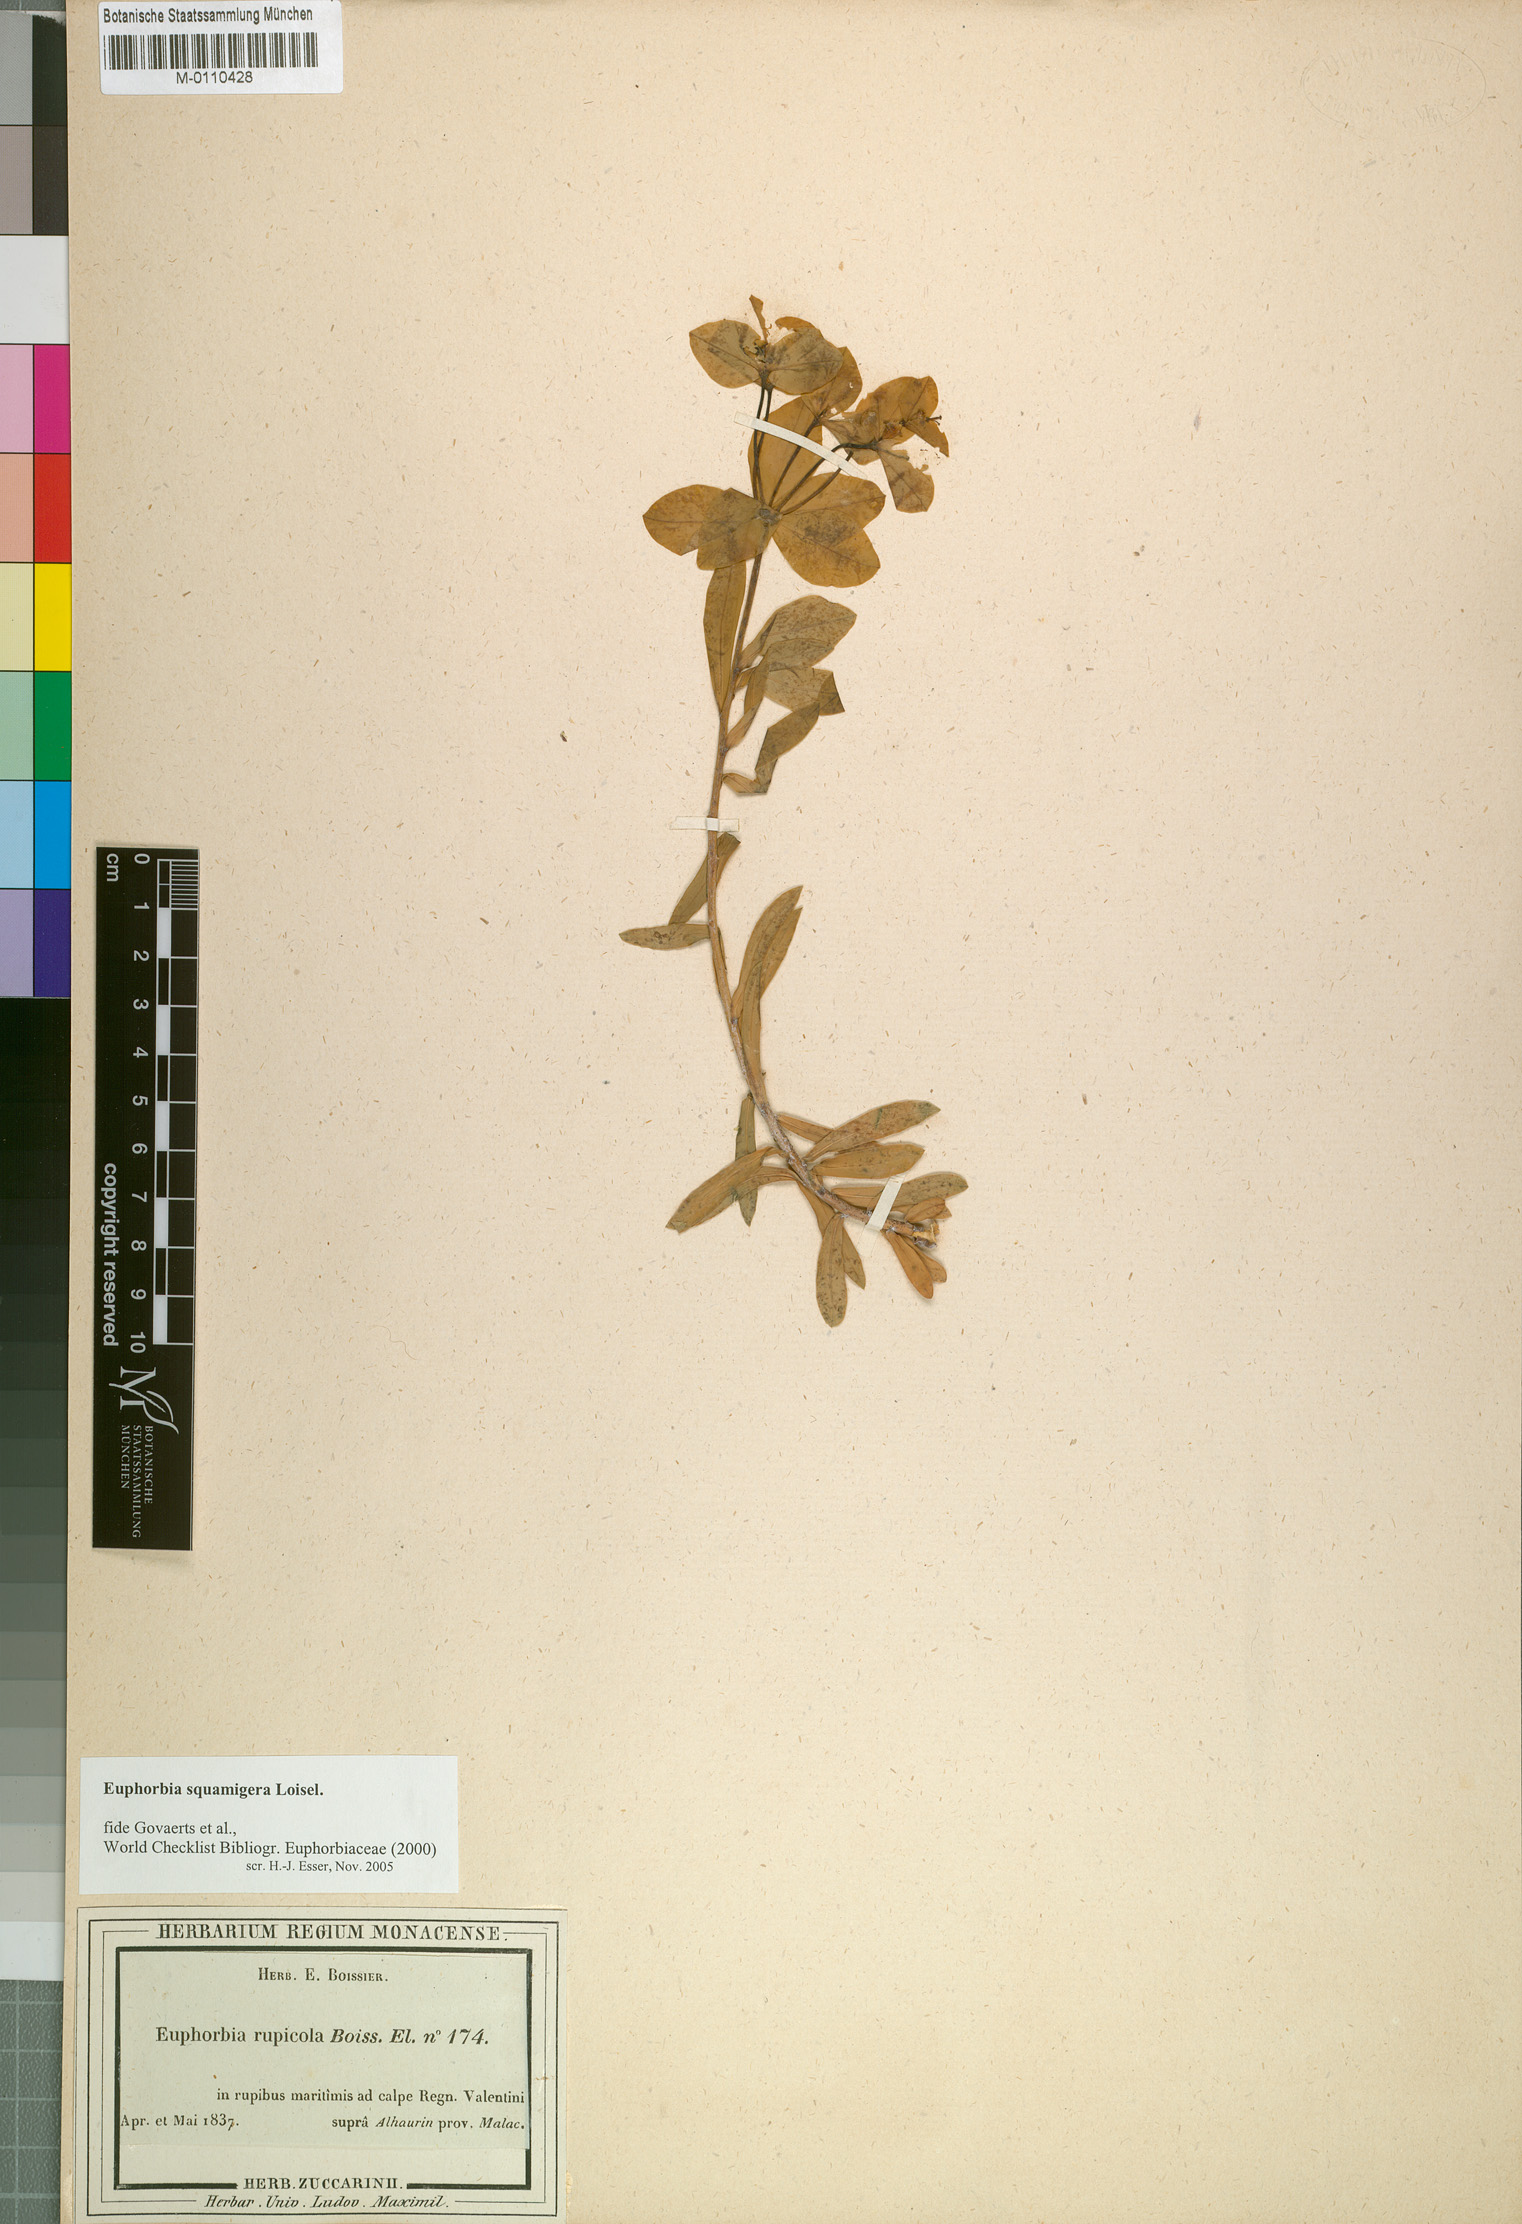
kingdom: Plantae
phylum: Tracheophyta
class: Magnoliopsida
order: Malpighiales
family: Euphorbiaceae
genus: Euphorbia
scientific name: Euphorbia squamigera
